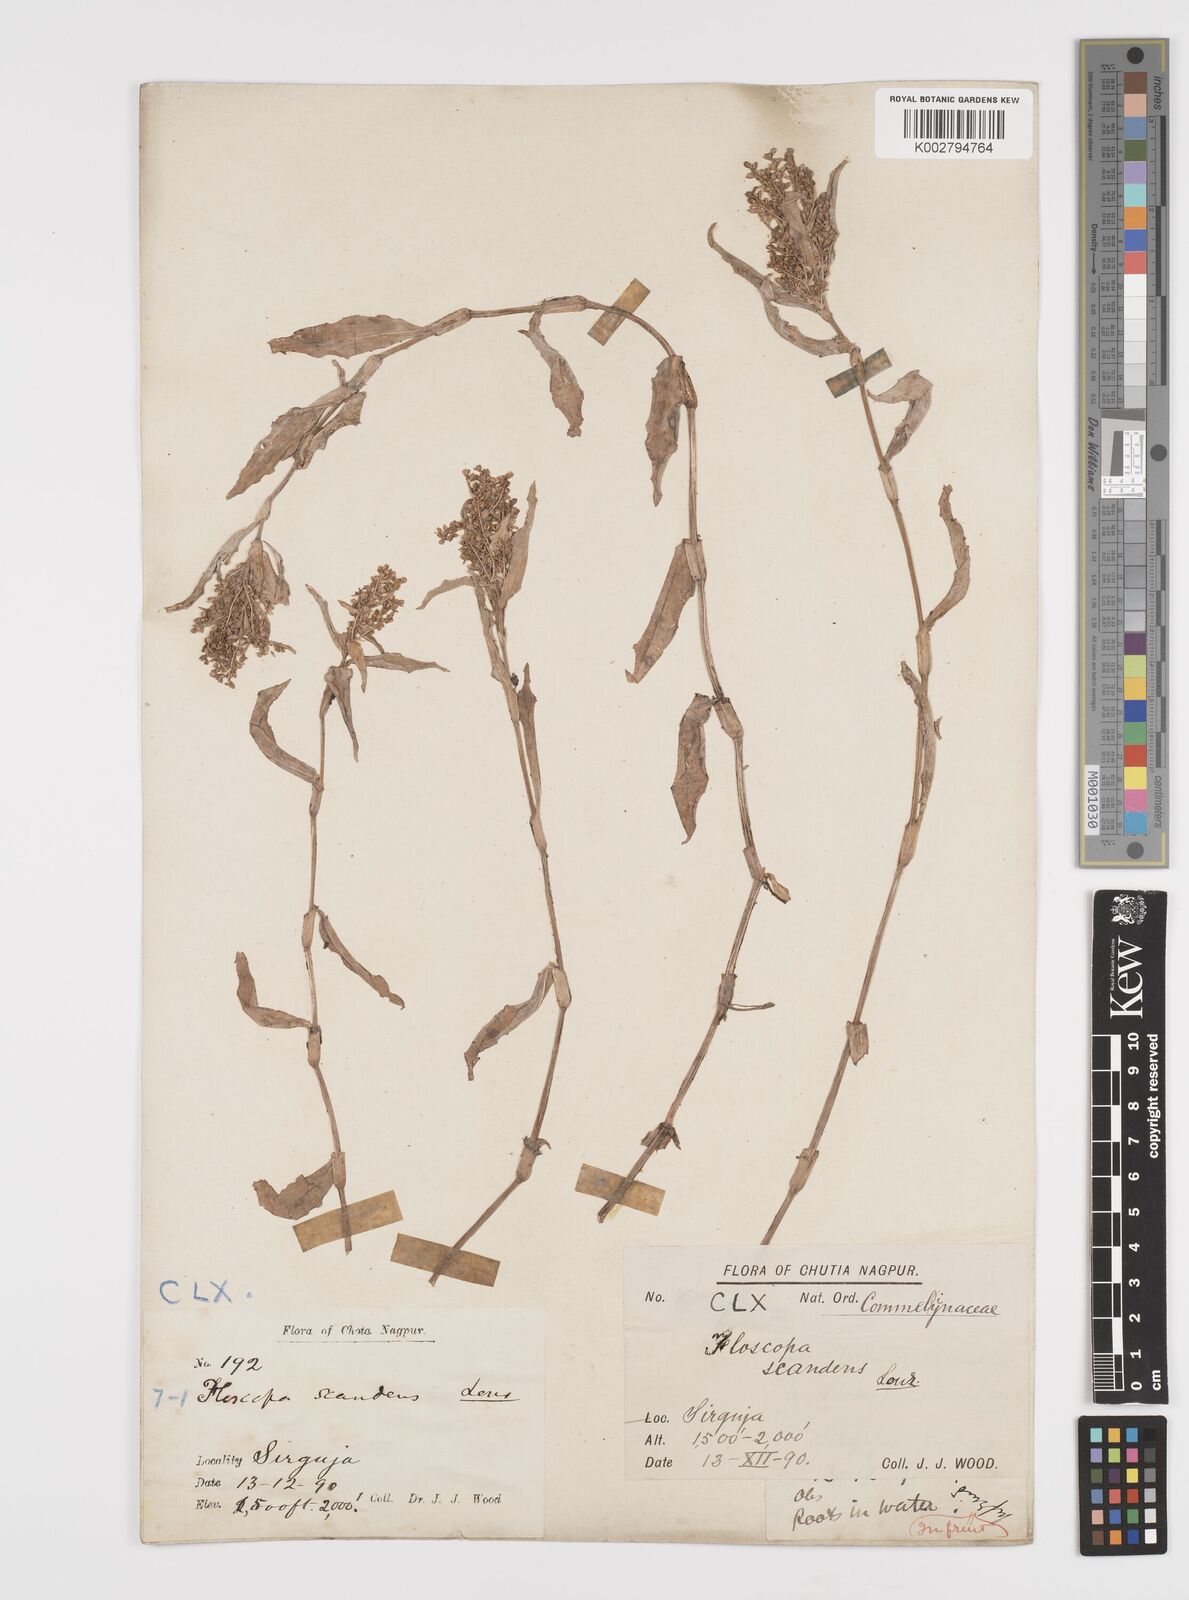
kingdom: Plantae
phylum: Tracheophyta
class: Liliopsida
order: Commelinales
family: Commelinaceae
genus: Floscopa
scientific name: Floscopa scandens
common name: Climbing flower cup
